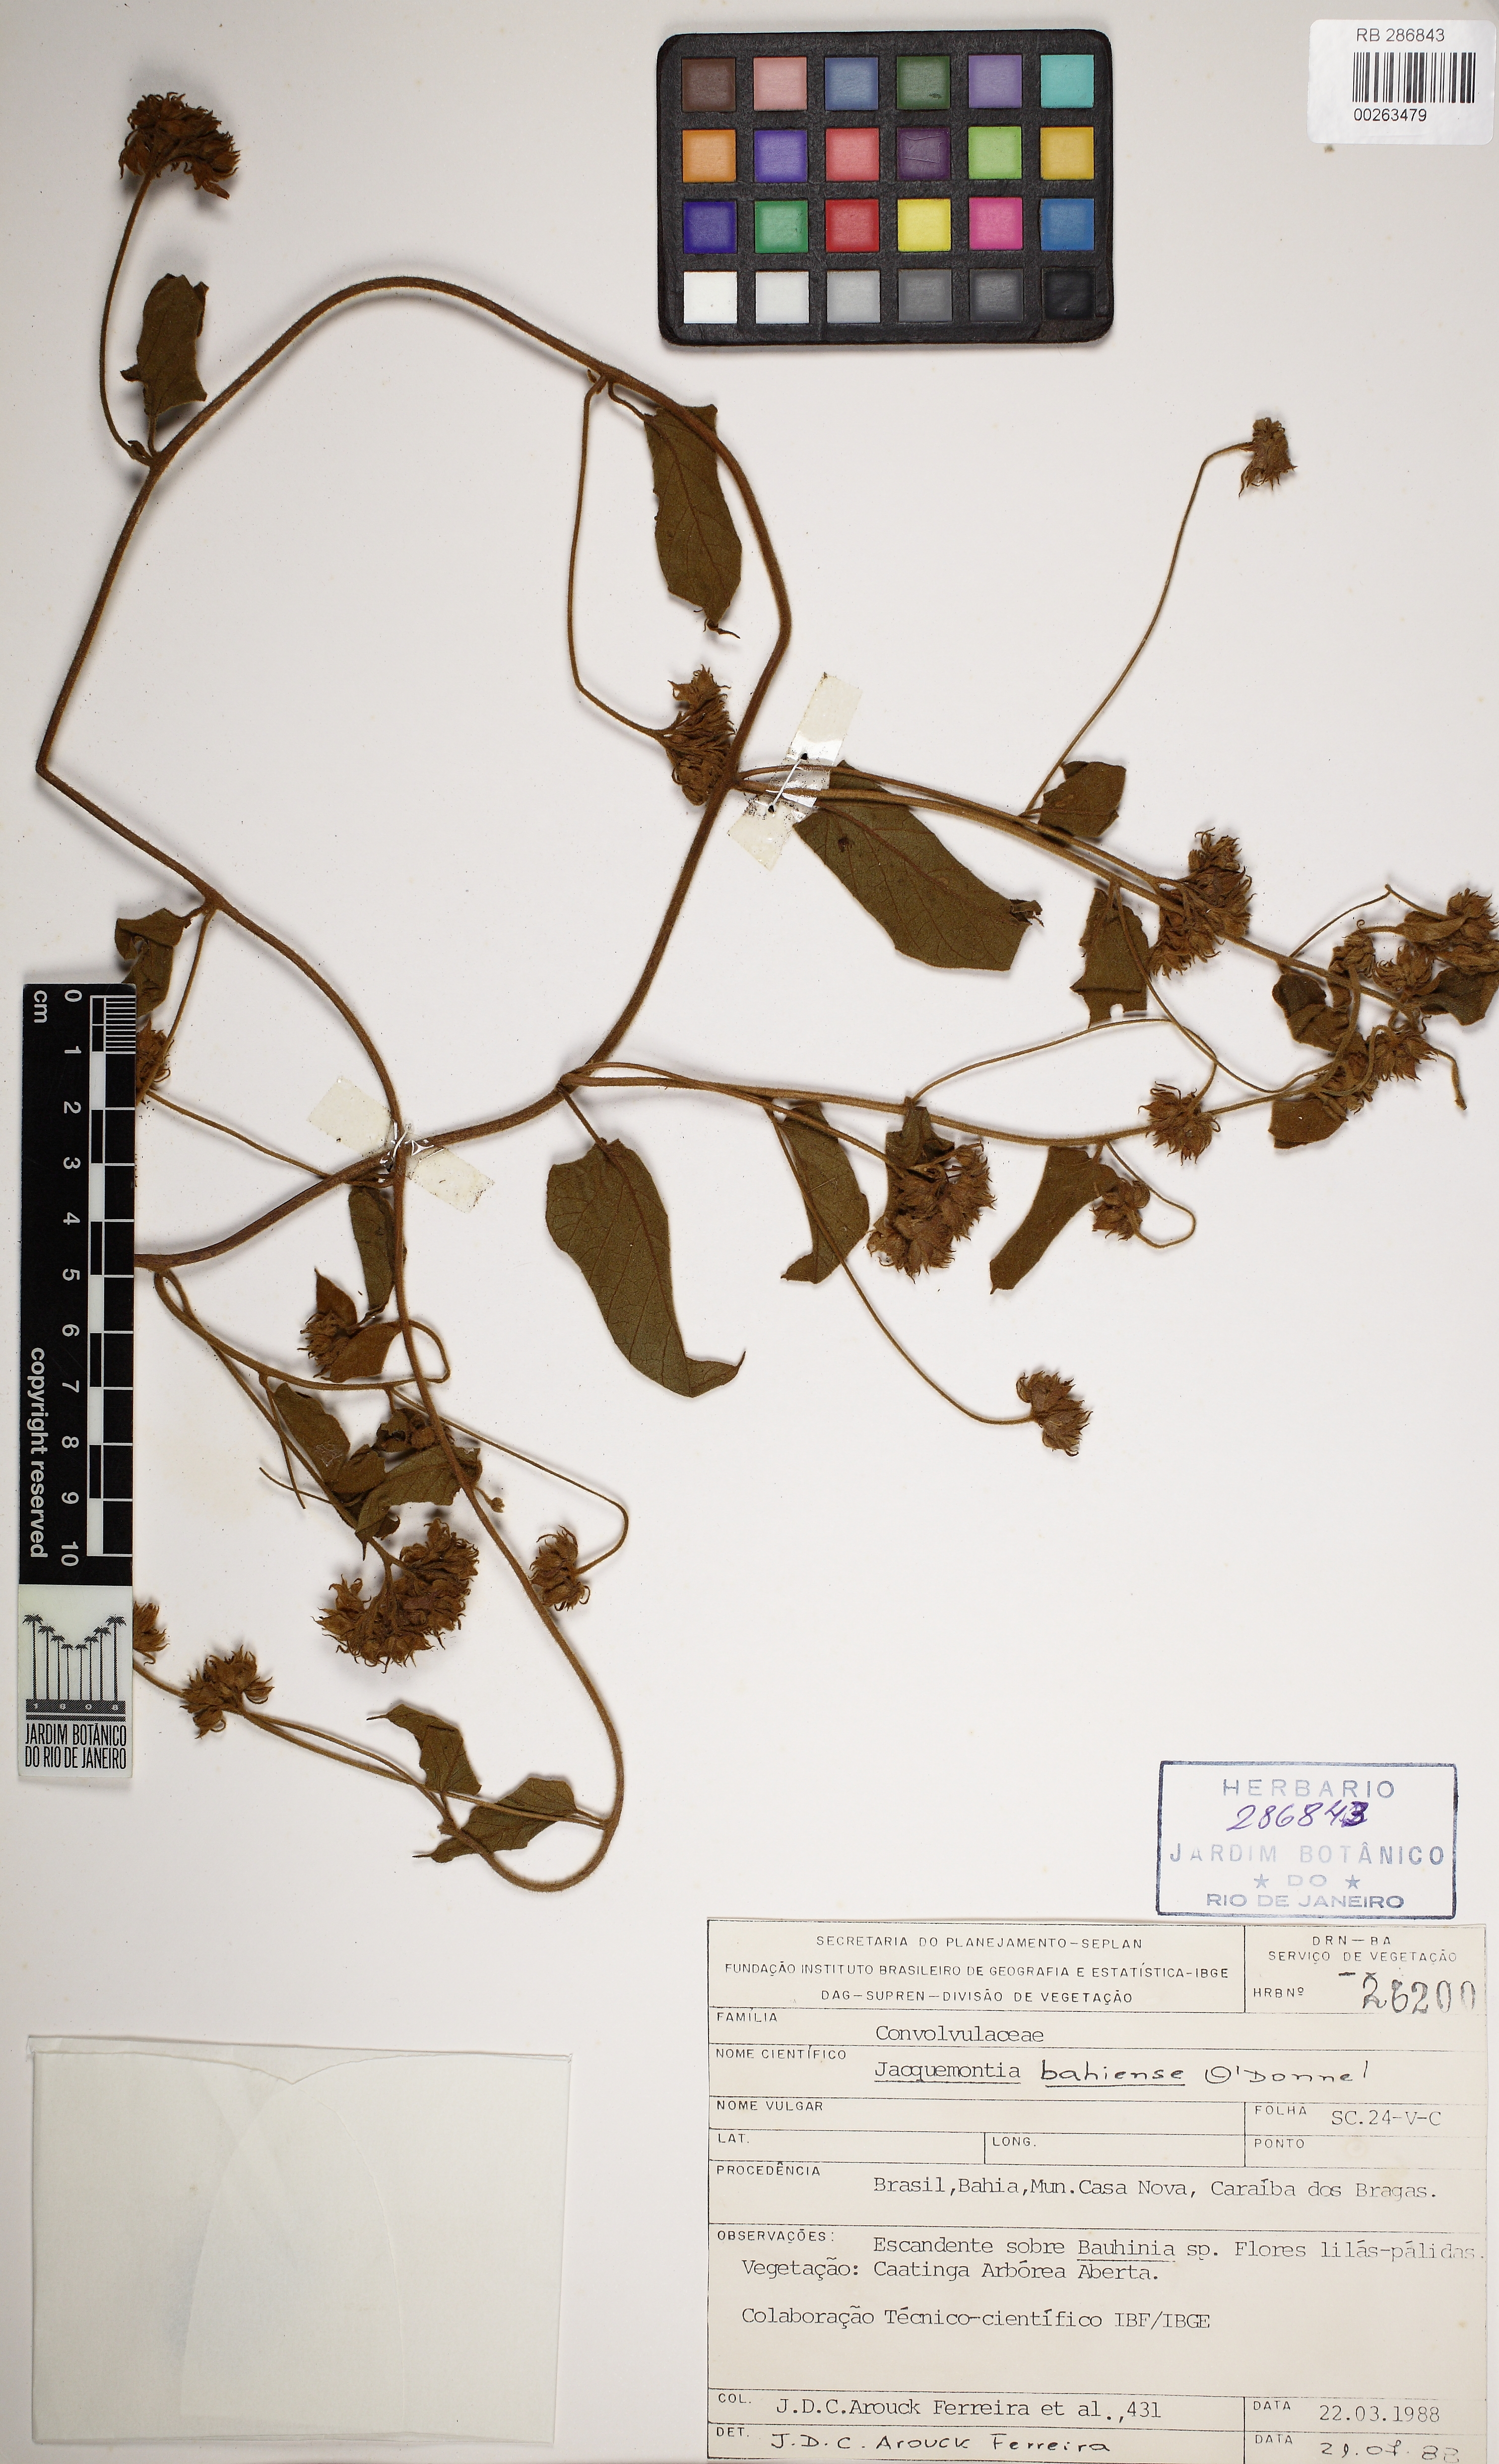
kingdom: Plantae
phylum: Tracheophyta
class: Magnoliopsida
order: Solanales
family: Convolvulaceae
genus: Jacquemontia
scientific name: Jacquemontia bahiensis
